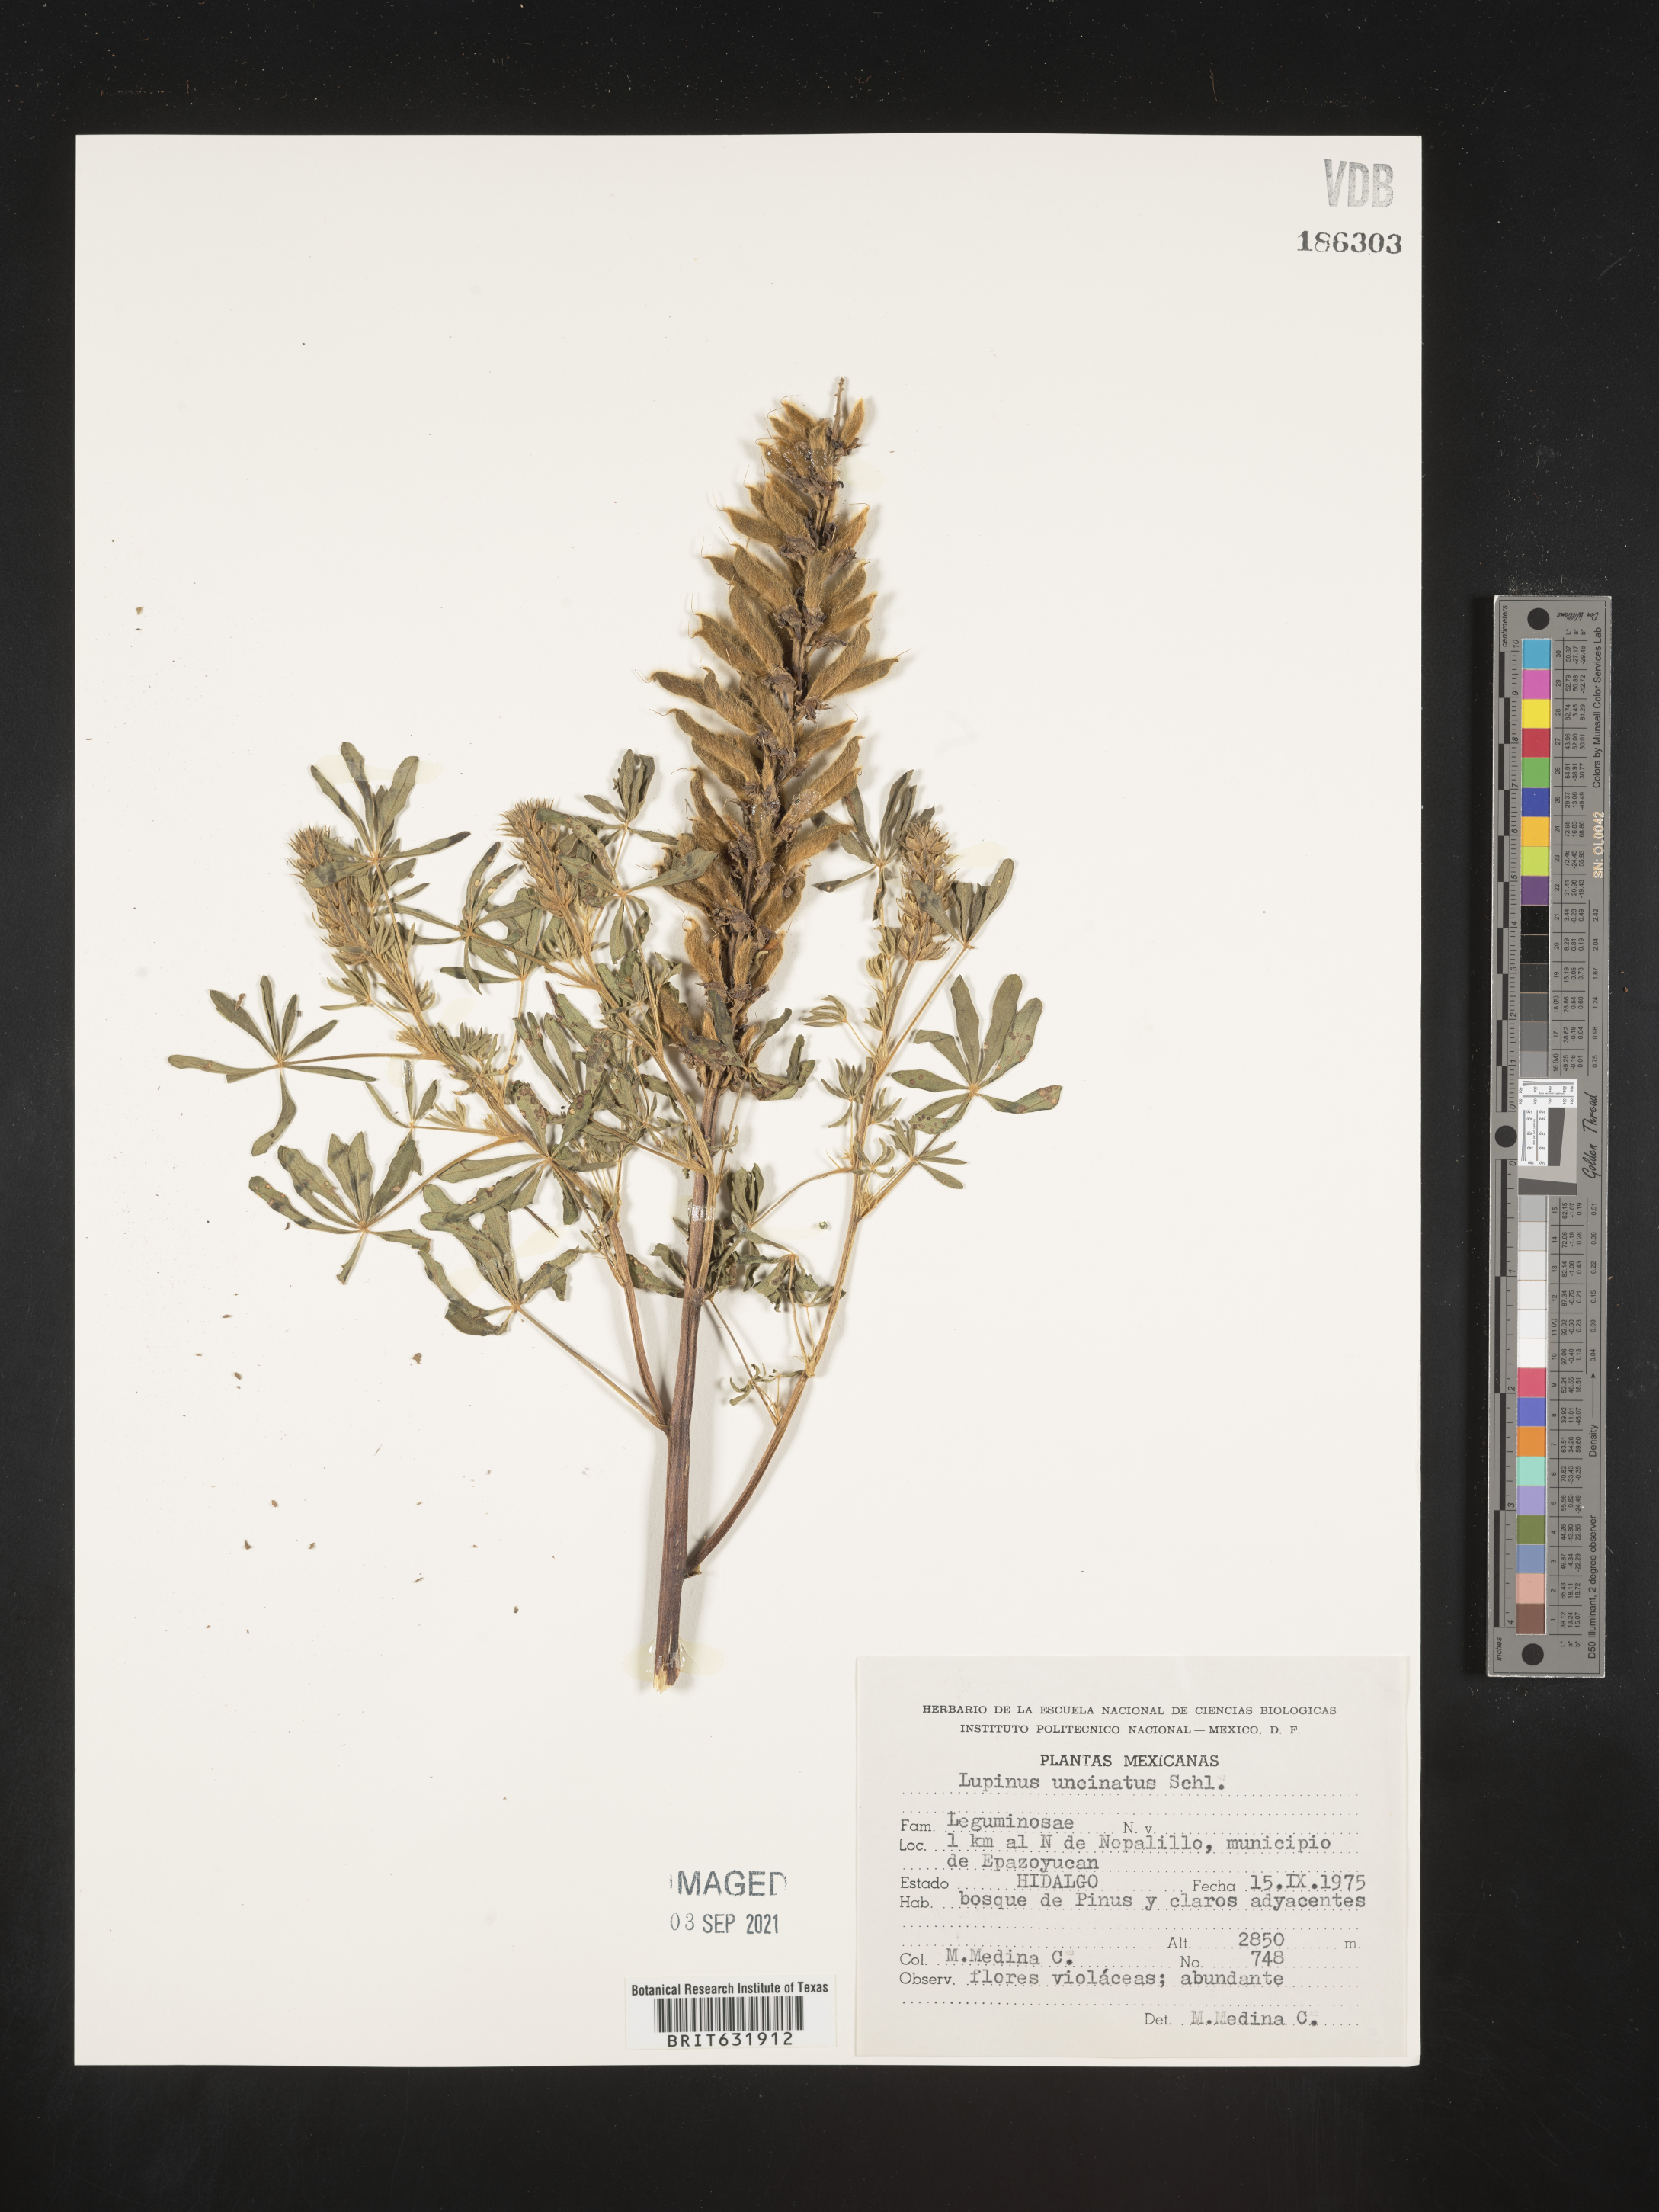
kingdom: Plantae
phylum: Tracheophyta
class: Magnoliopsida
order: Fabales
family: Fabaceae
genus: Lupinus
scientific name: Lupinus
